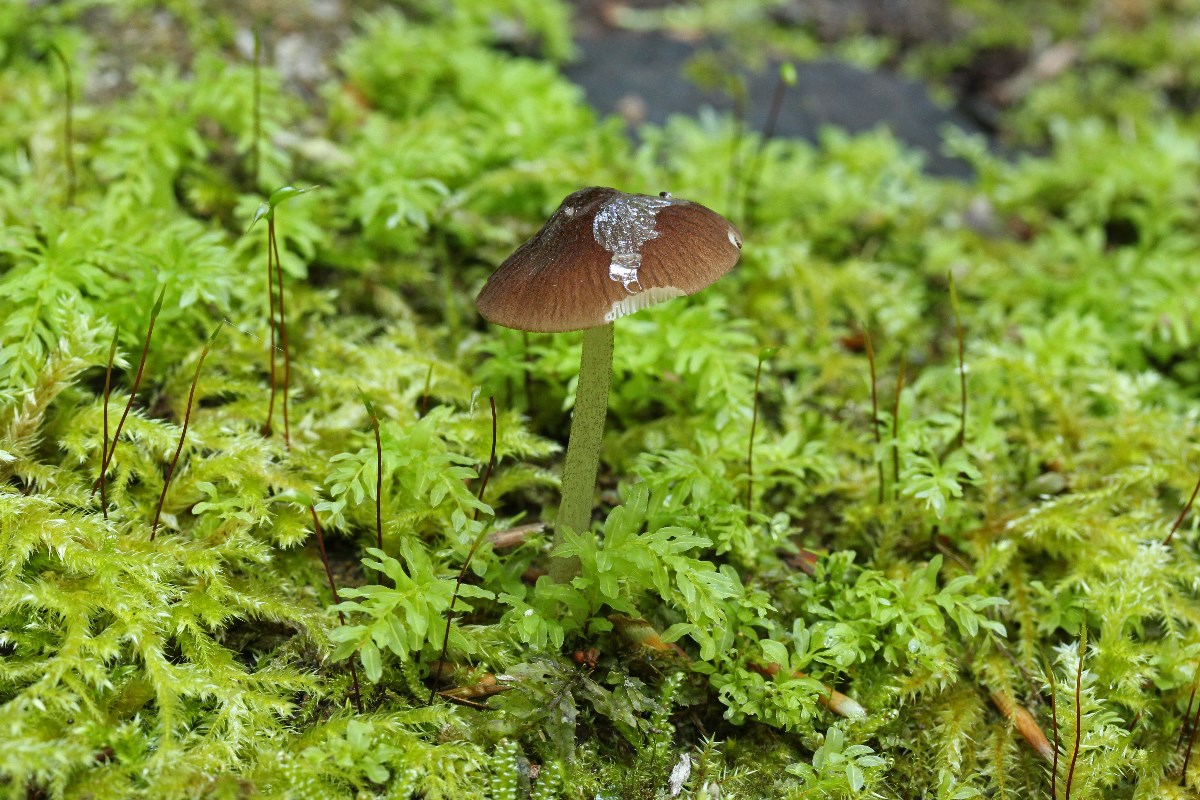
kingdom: Fungi
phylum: Basidiomycota
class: Agaricomycetes
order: Agaricales
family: Pluteaceae
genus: Pluteus
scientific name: Pluteus podospileus
